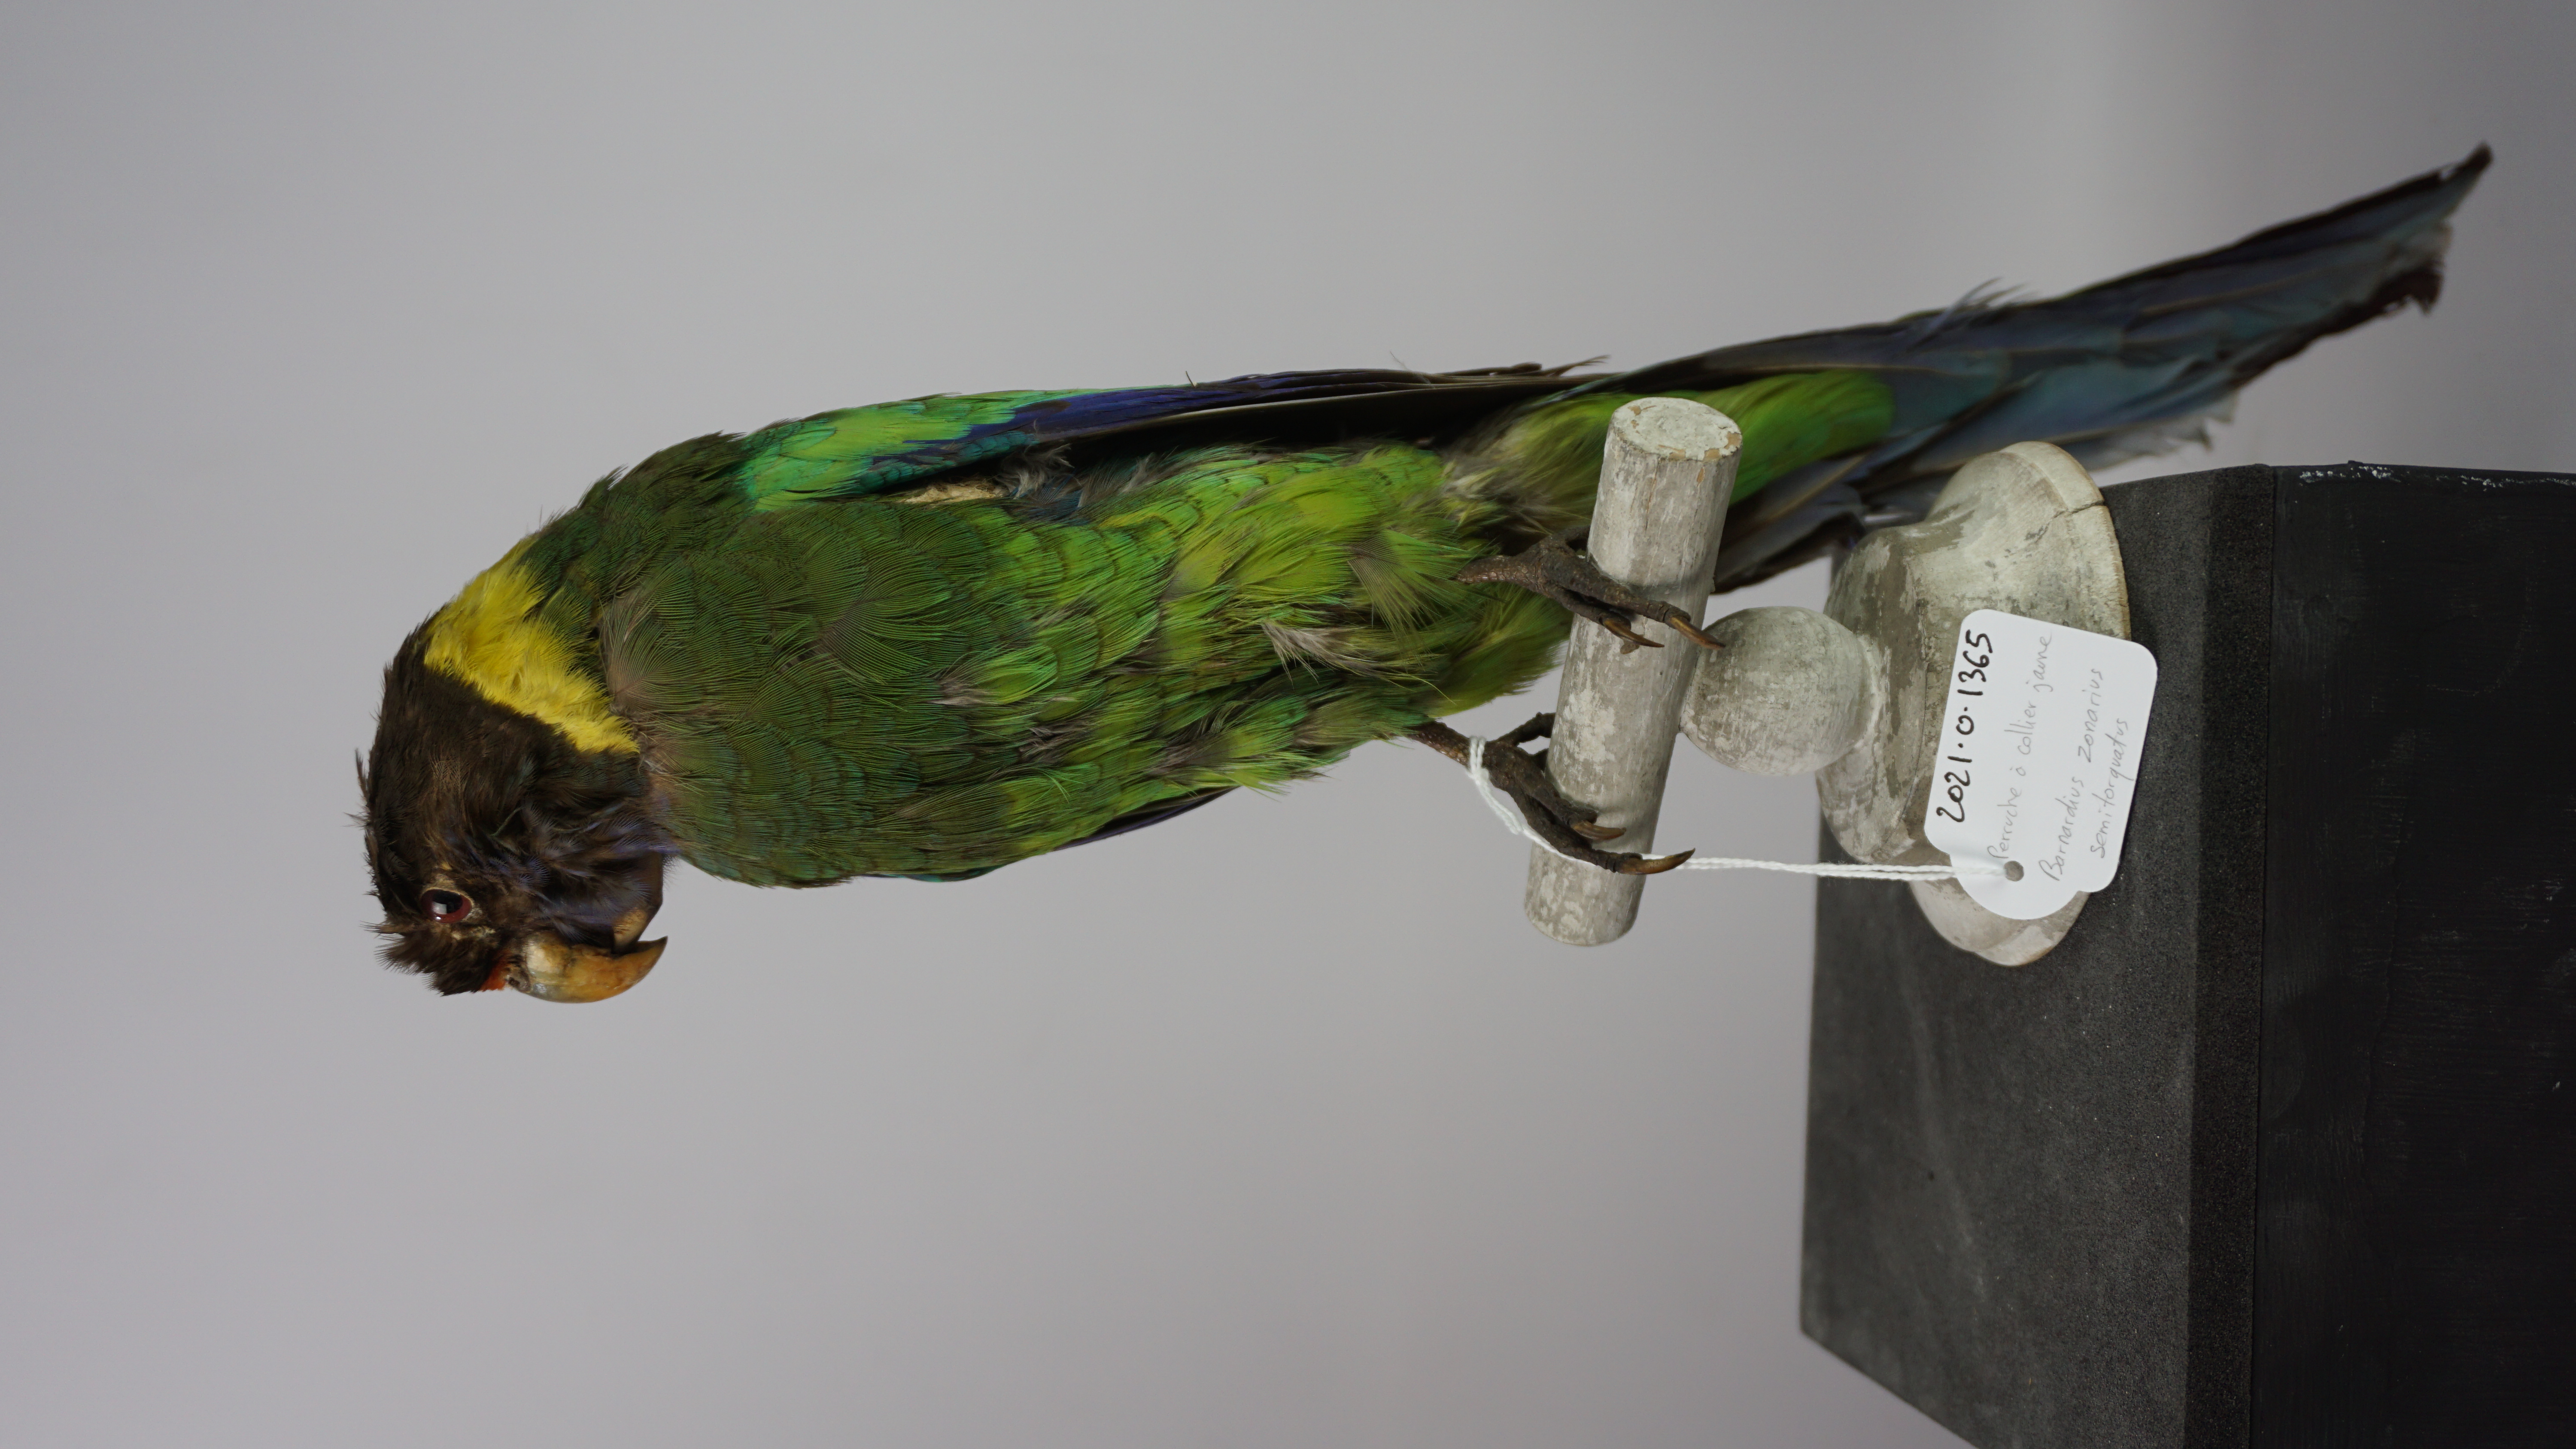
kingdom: Animalia
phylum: Chordata
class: Aves
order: Psittaciformes
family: Psittacidae
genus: Barnardius
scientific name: Barnardius zonarius
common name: Australian ringneck
